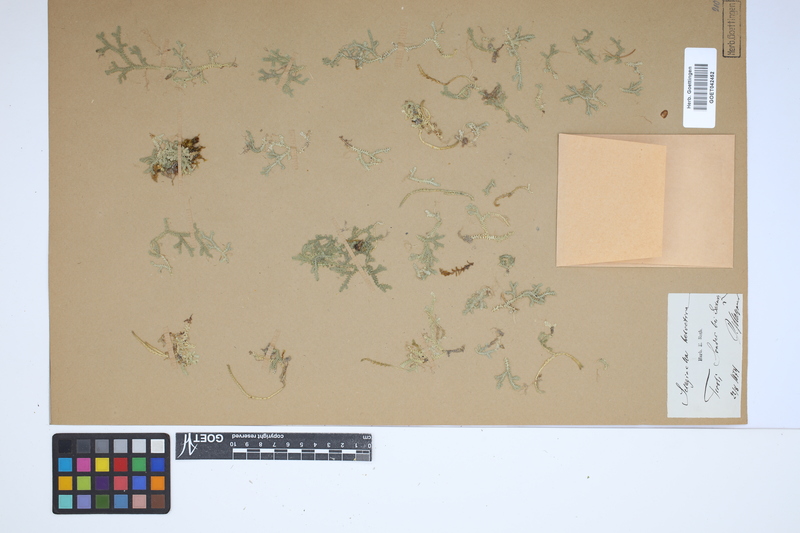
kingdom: Plantae
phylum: Tracheophyta
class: Lycopodiopsida
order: Selaginellales
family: Selaginellaceae
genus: Selaginella
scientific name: Selaginella helvetica
